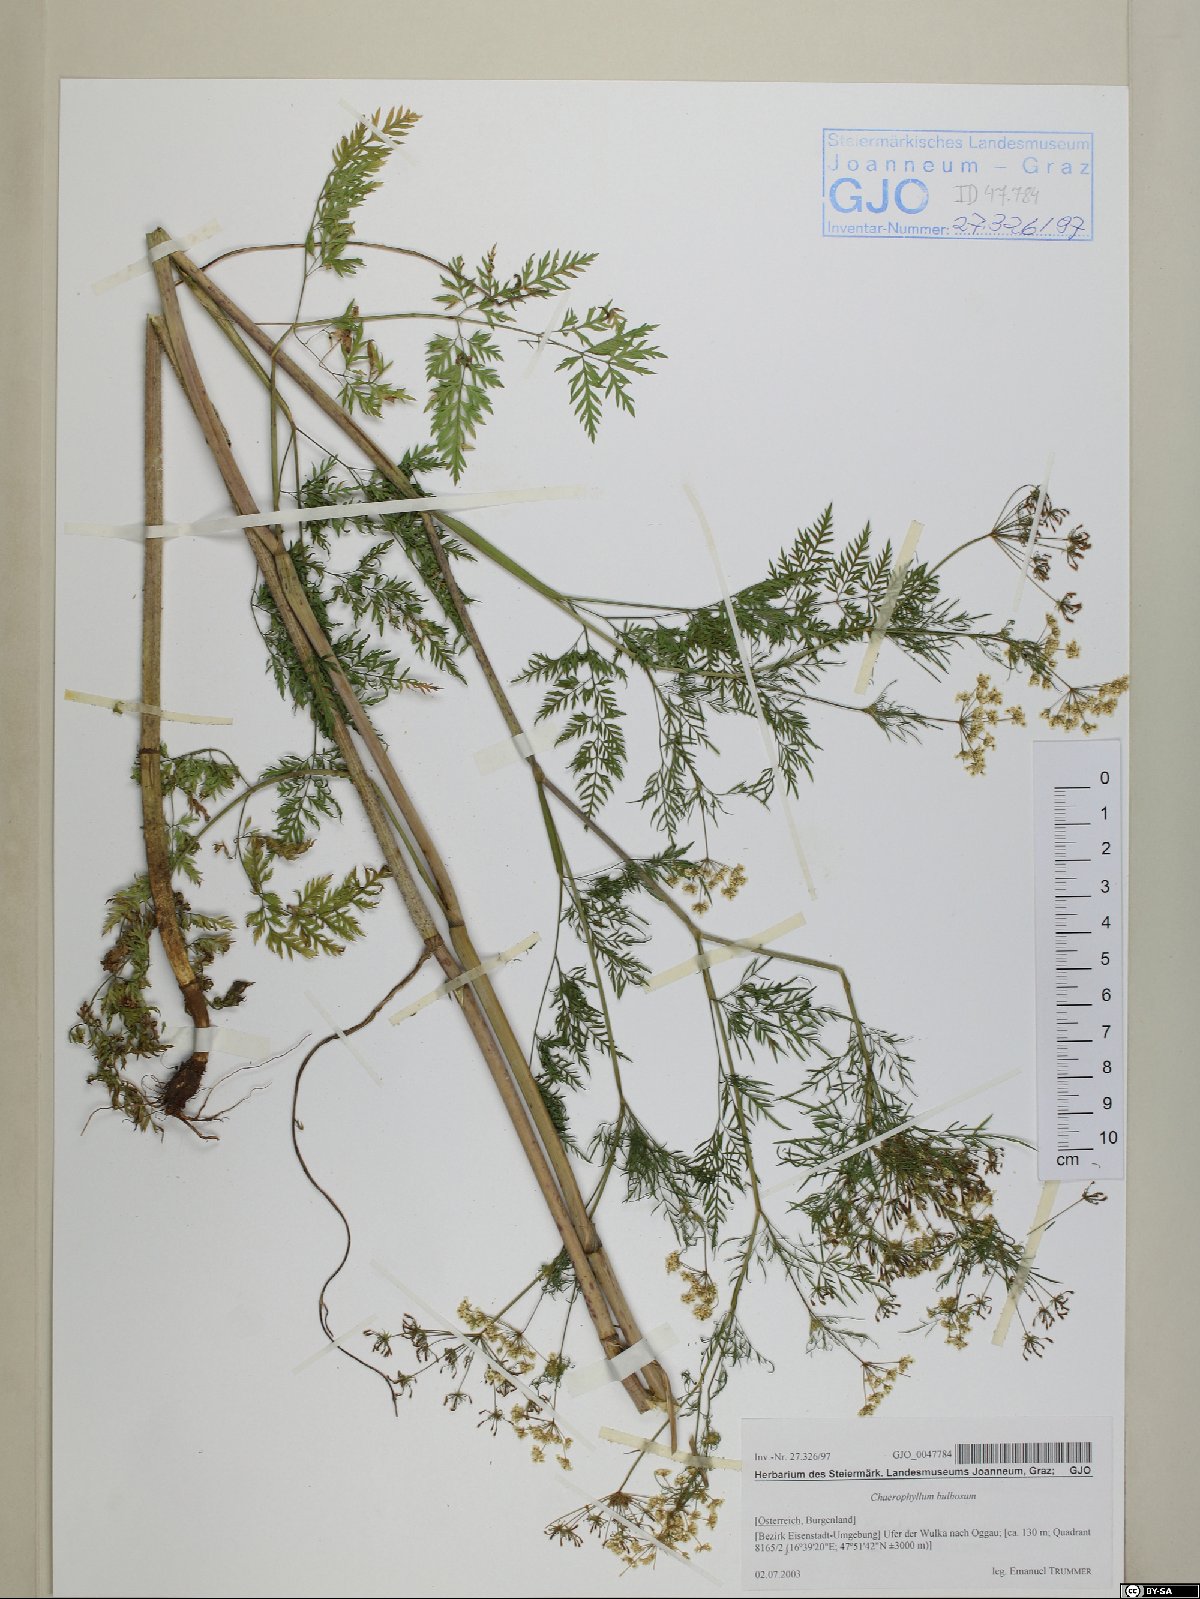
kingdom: Plantae
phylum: Tracheophyta
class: Magnoliopsida
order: Apiales
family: Apiaceae
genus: Chaerophyllum
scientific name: Chaerophyllum bulbosum
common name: Bulbous chervil
